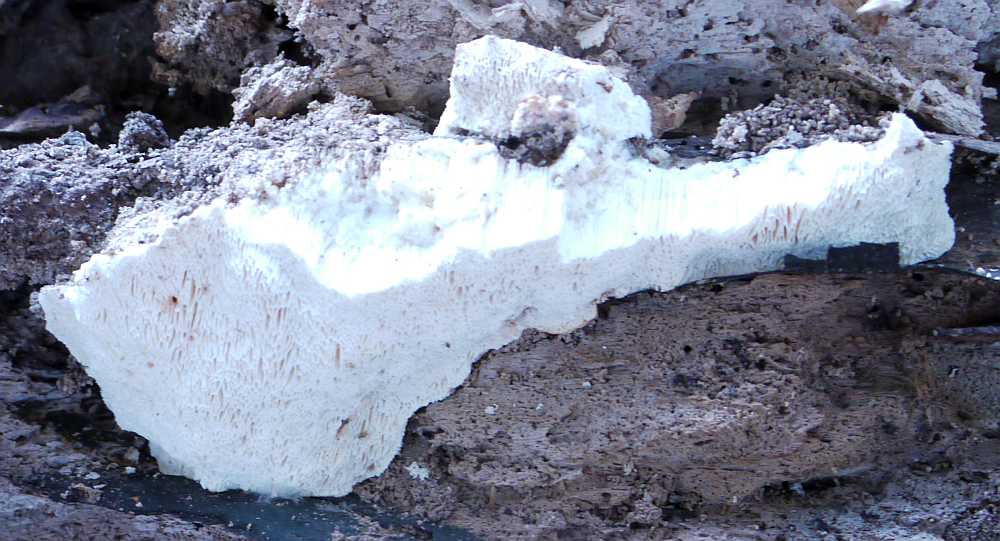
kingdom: Fungi
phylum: Basidiomycota
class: Agaricomycetes
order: Polyporales
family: Polyporaceae
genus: Trametes
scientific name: Trametes gibbosa
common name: puklet læderporesvamp
